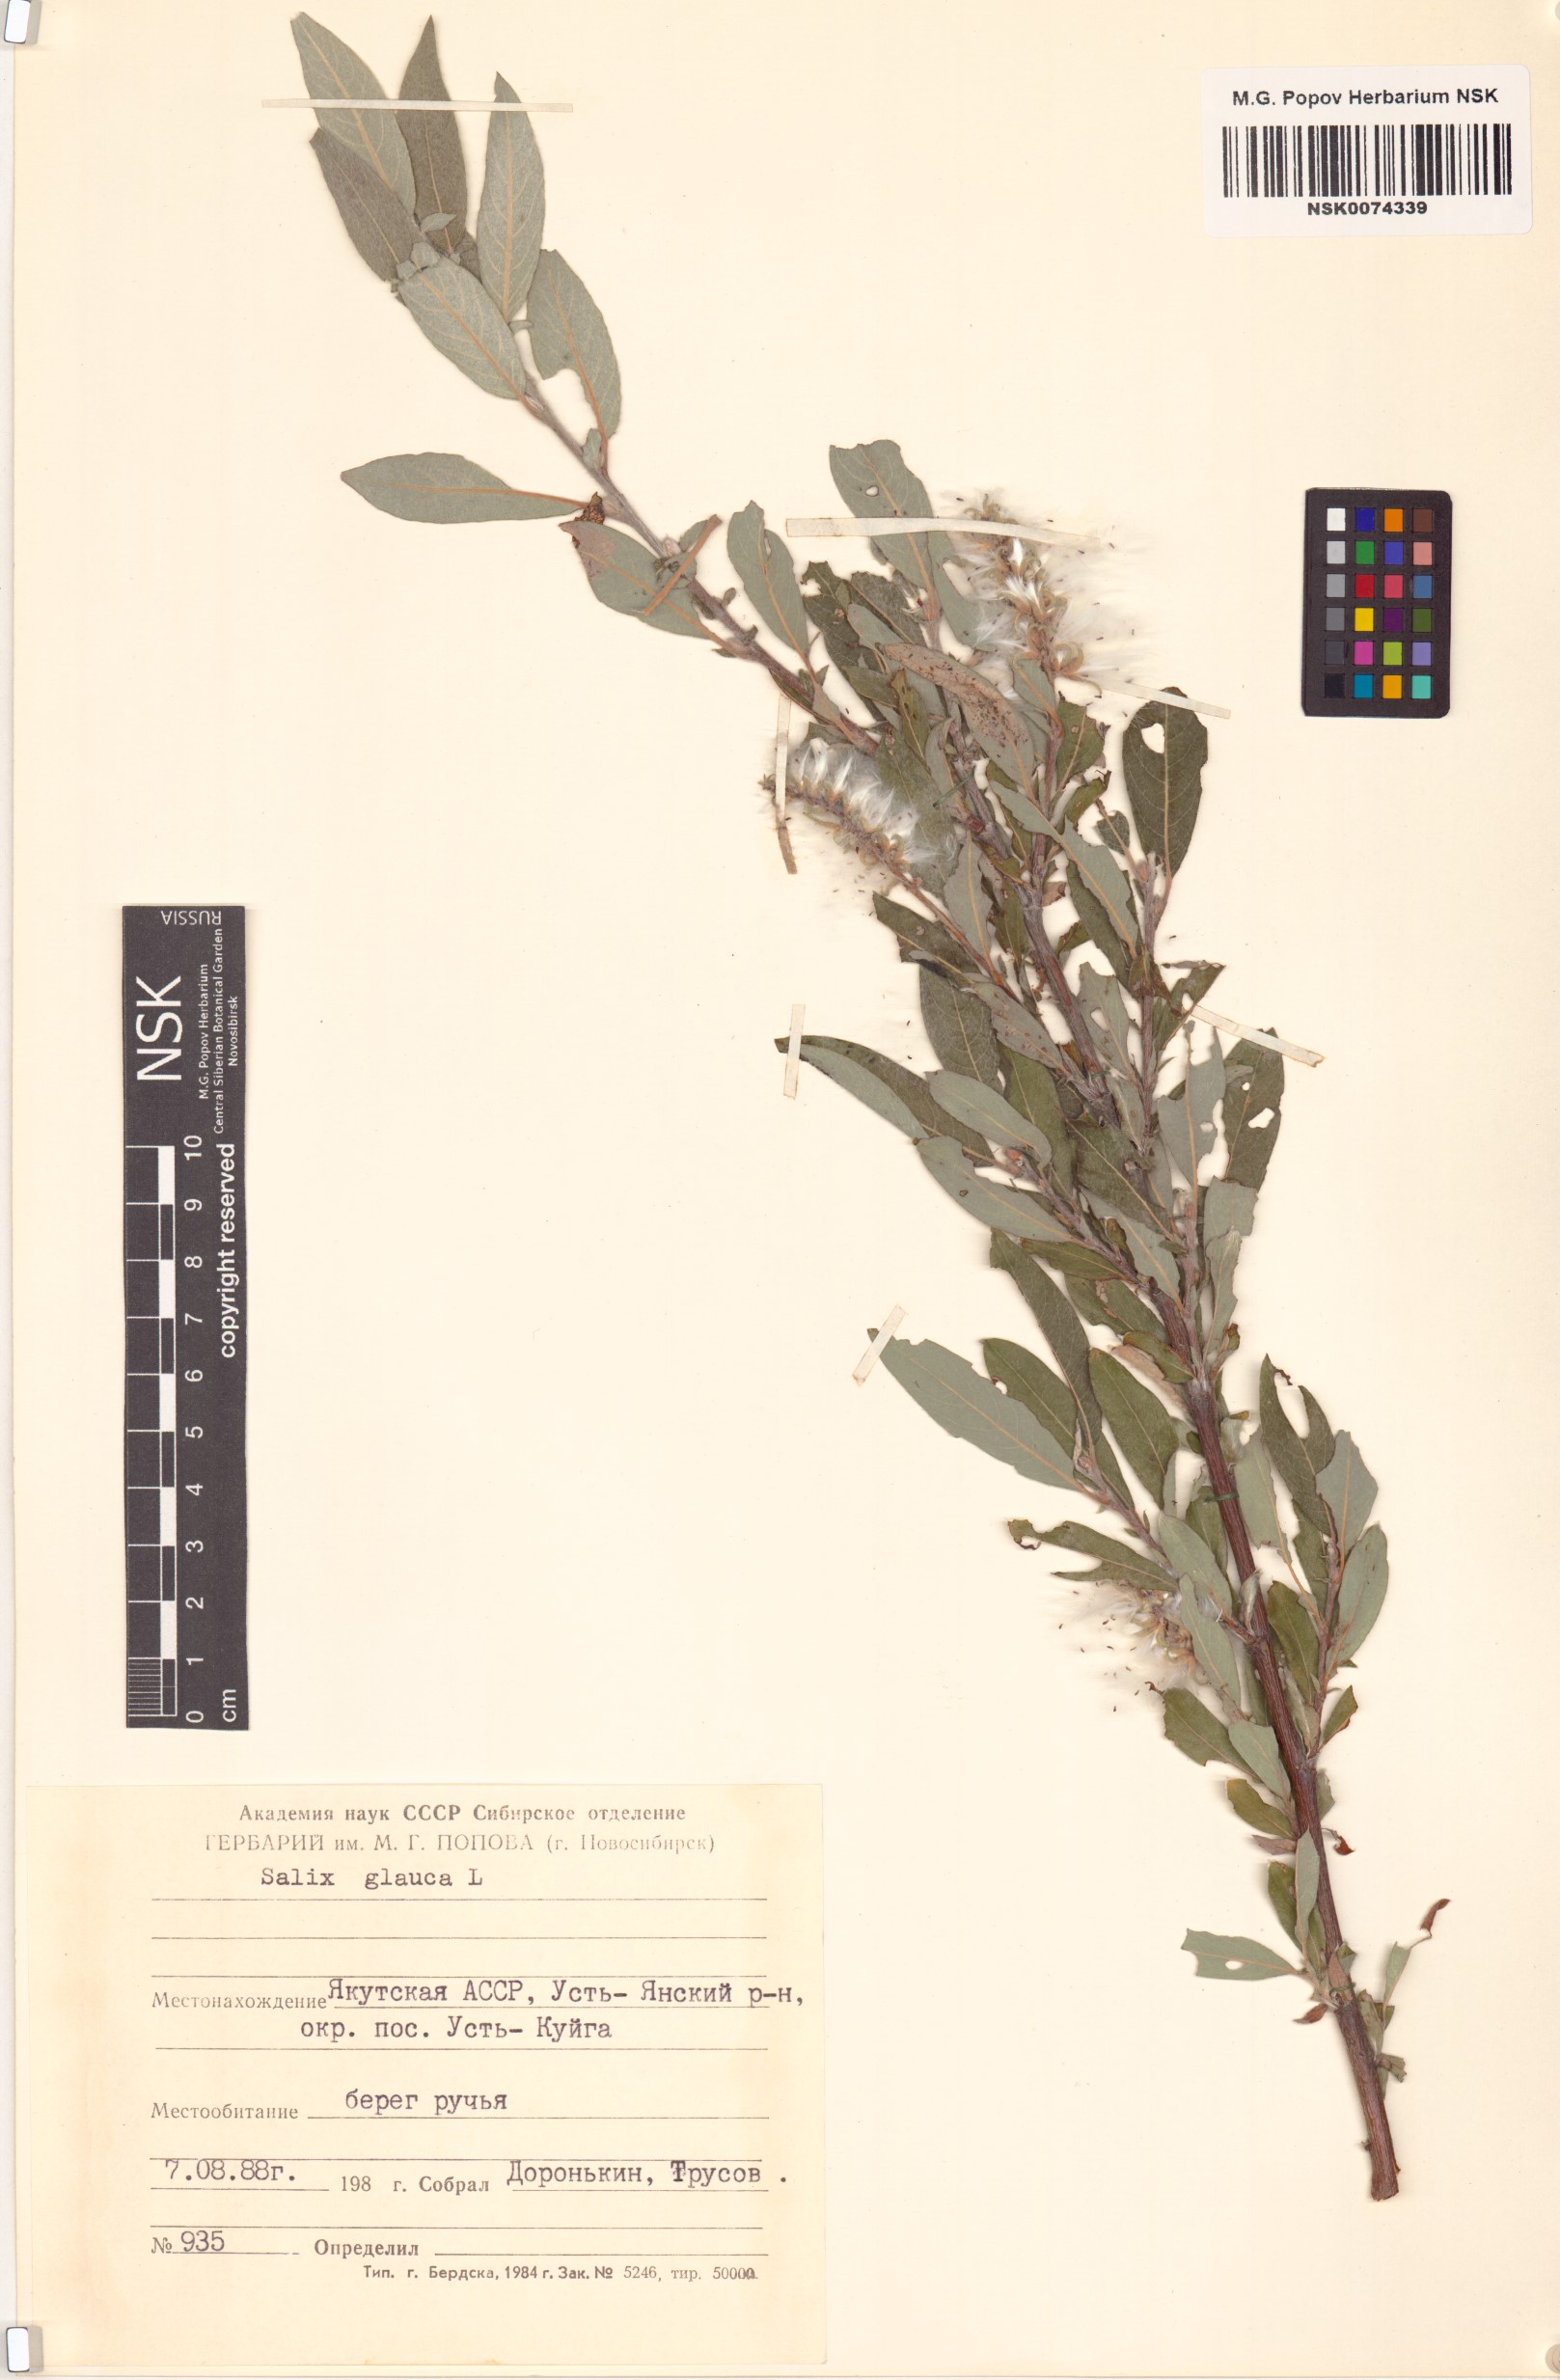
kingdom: Plantae
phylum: Tracheophyta
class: Magnoliopsida
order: Malpighiales
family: Salicaceae
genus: Salix
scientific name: Salix glauca
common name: Glaucous willow
